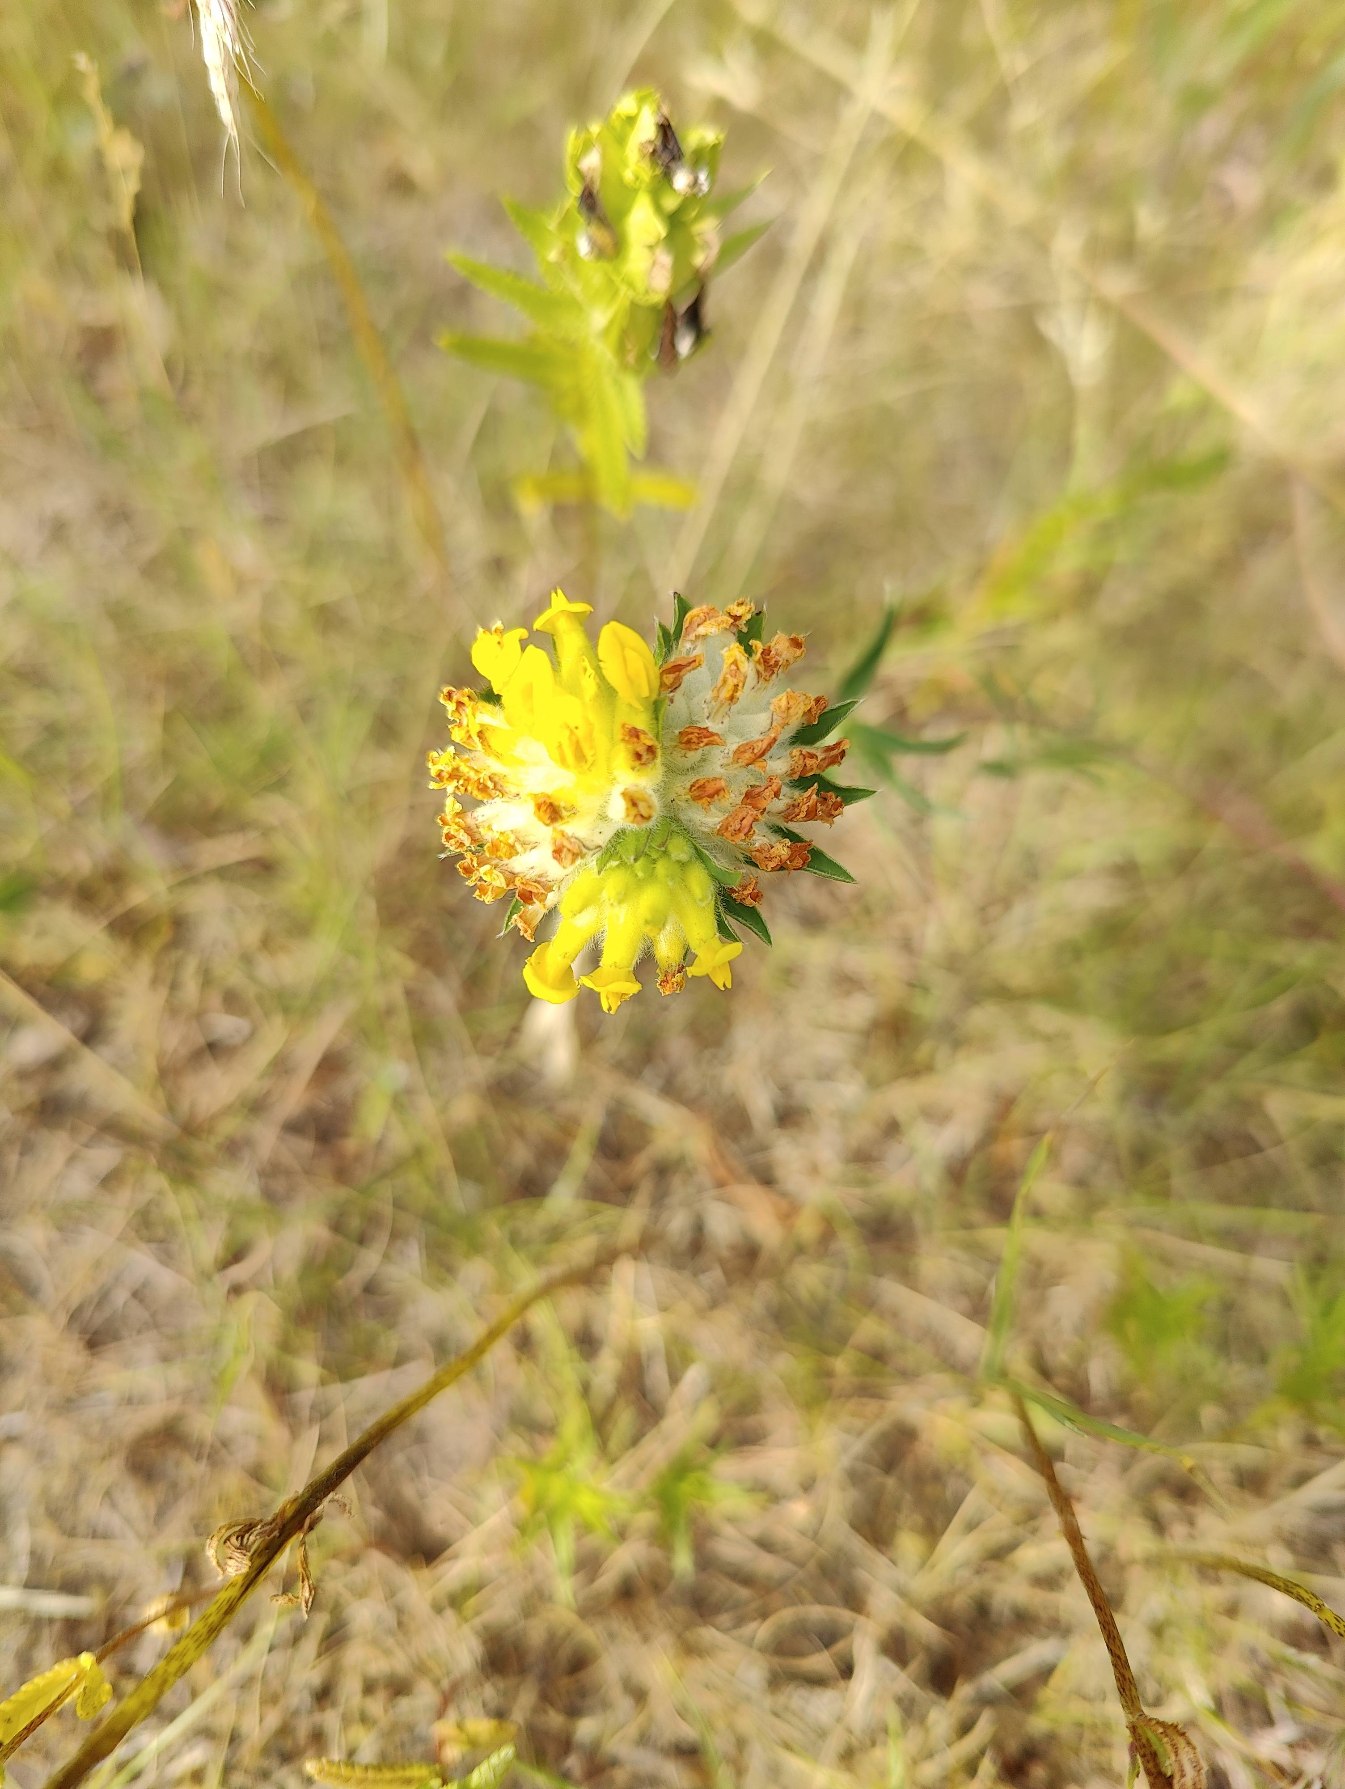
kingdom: Plantae
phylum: Tracheophyta
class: Magnoliopsida
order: Fabales
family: Fabaceae
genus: Anthyllis
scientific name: Anthyllis vulneraria
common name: Rundbælg
